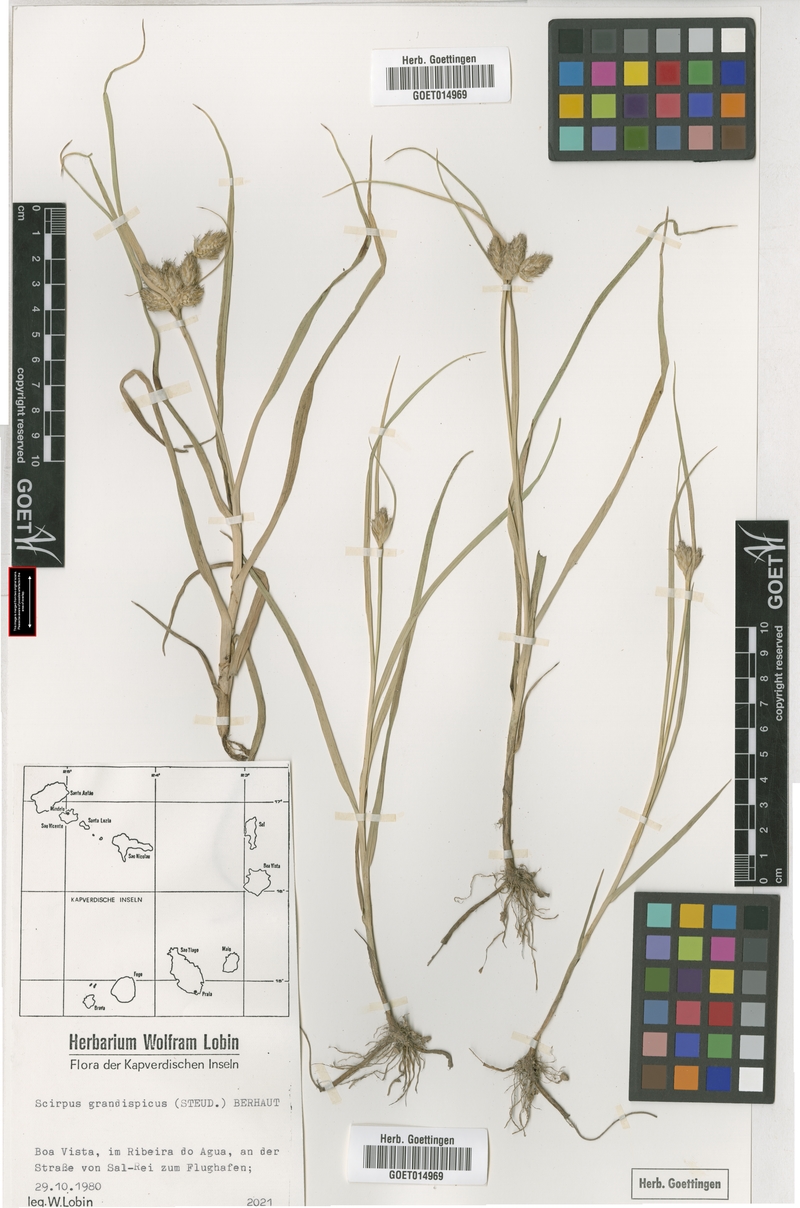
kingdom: Plantae
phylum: Tracheophyta
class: Liliopsida
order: Poales
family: Cyperaceae
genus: Bolboschoenus
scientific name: Bolboschoenus grandispicus
